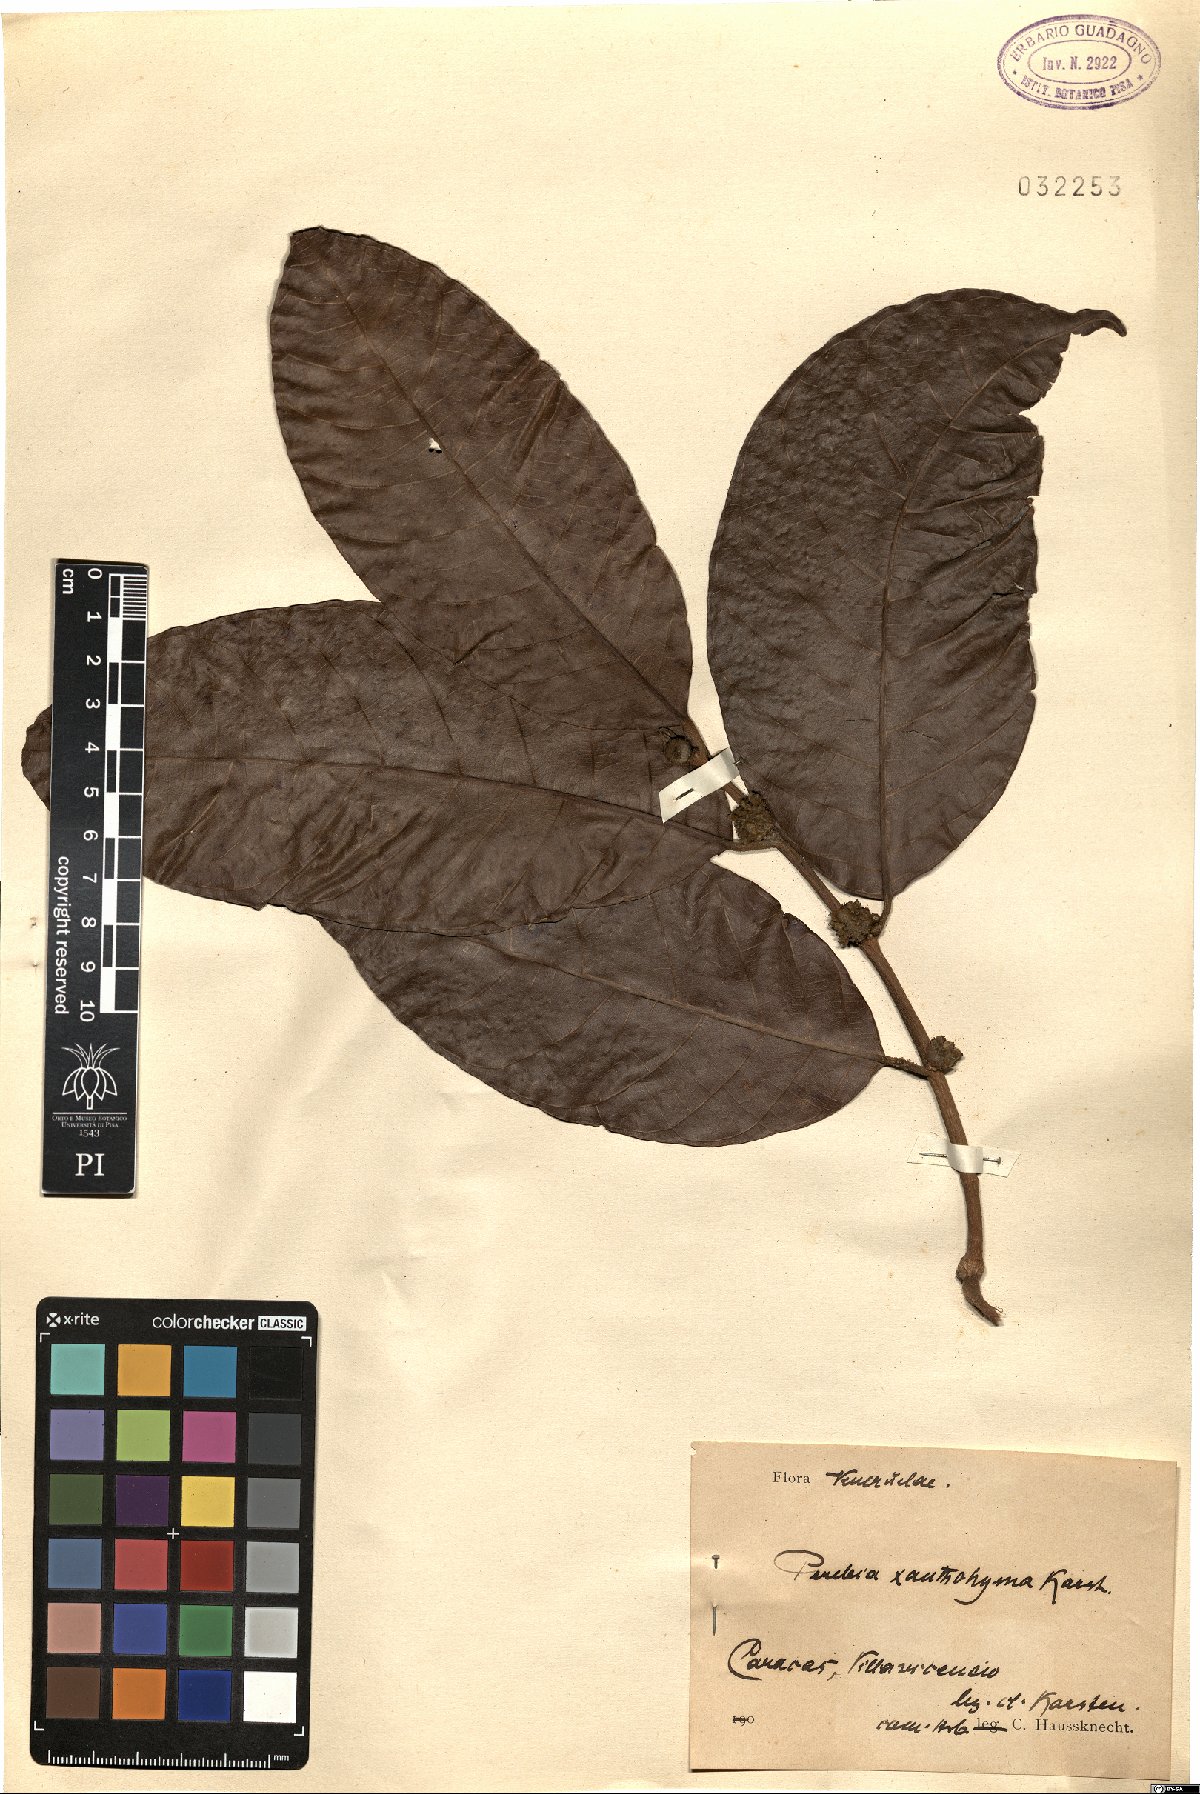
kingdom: Plantae
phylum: Tracheophyta
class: Magnoliopsida
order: Rosales
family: Moraceae
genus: Perebea
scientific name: Perebea xanthochyma
